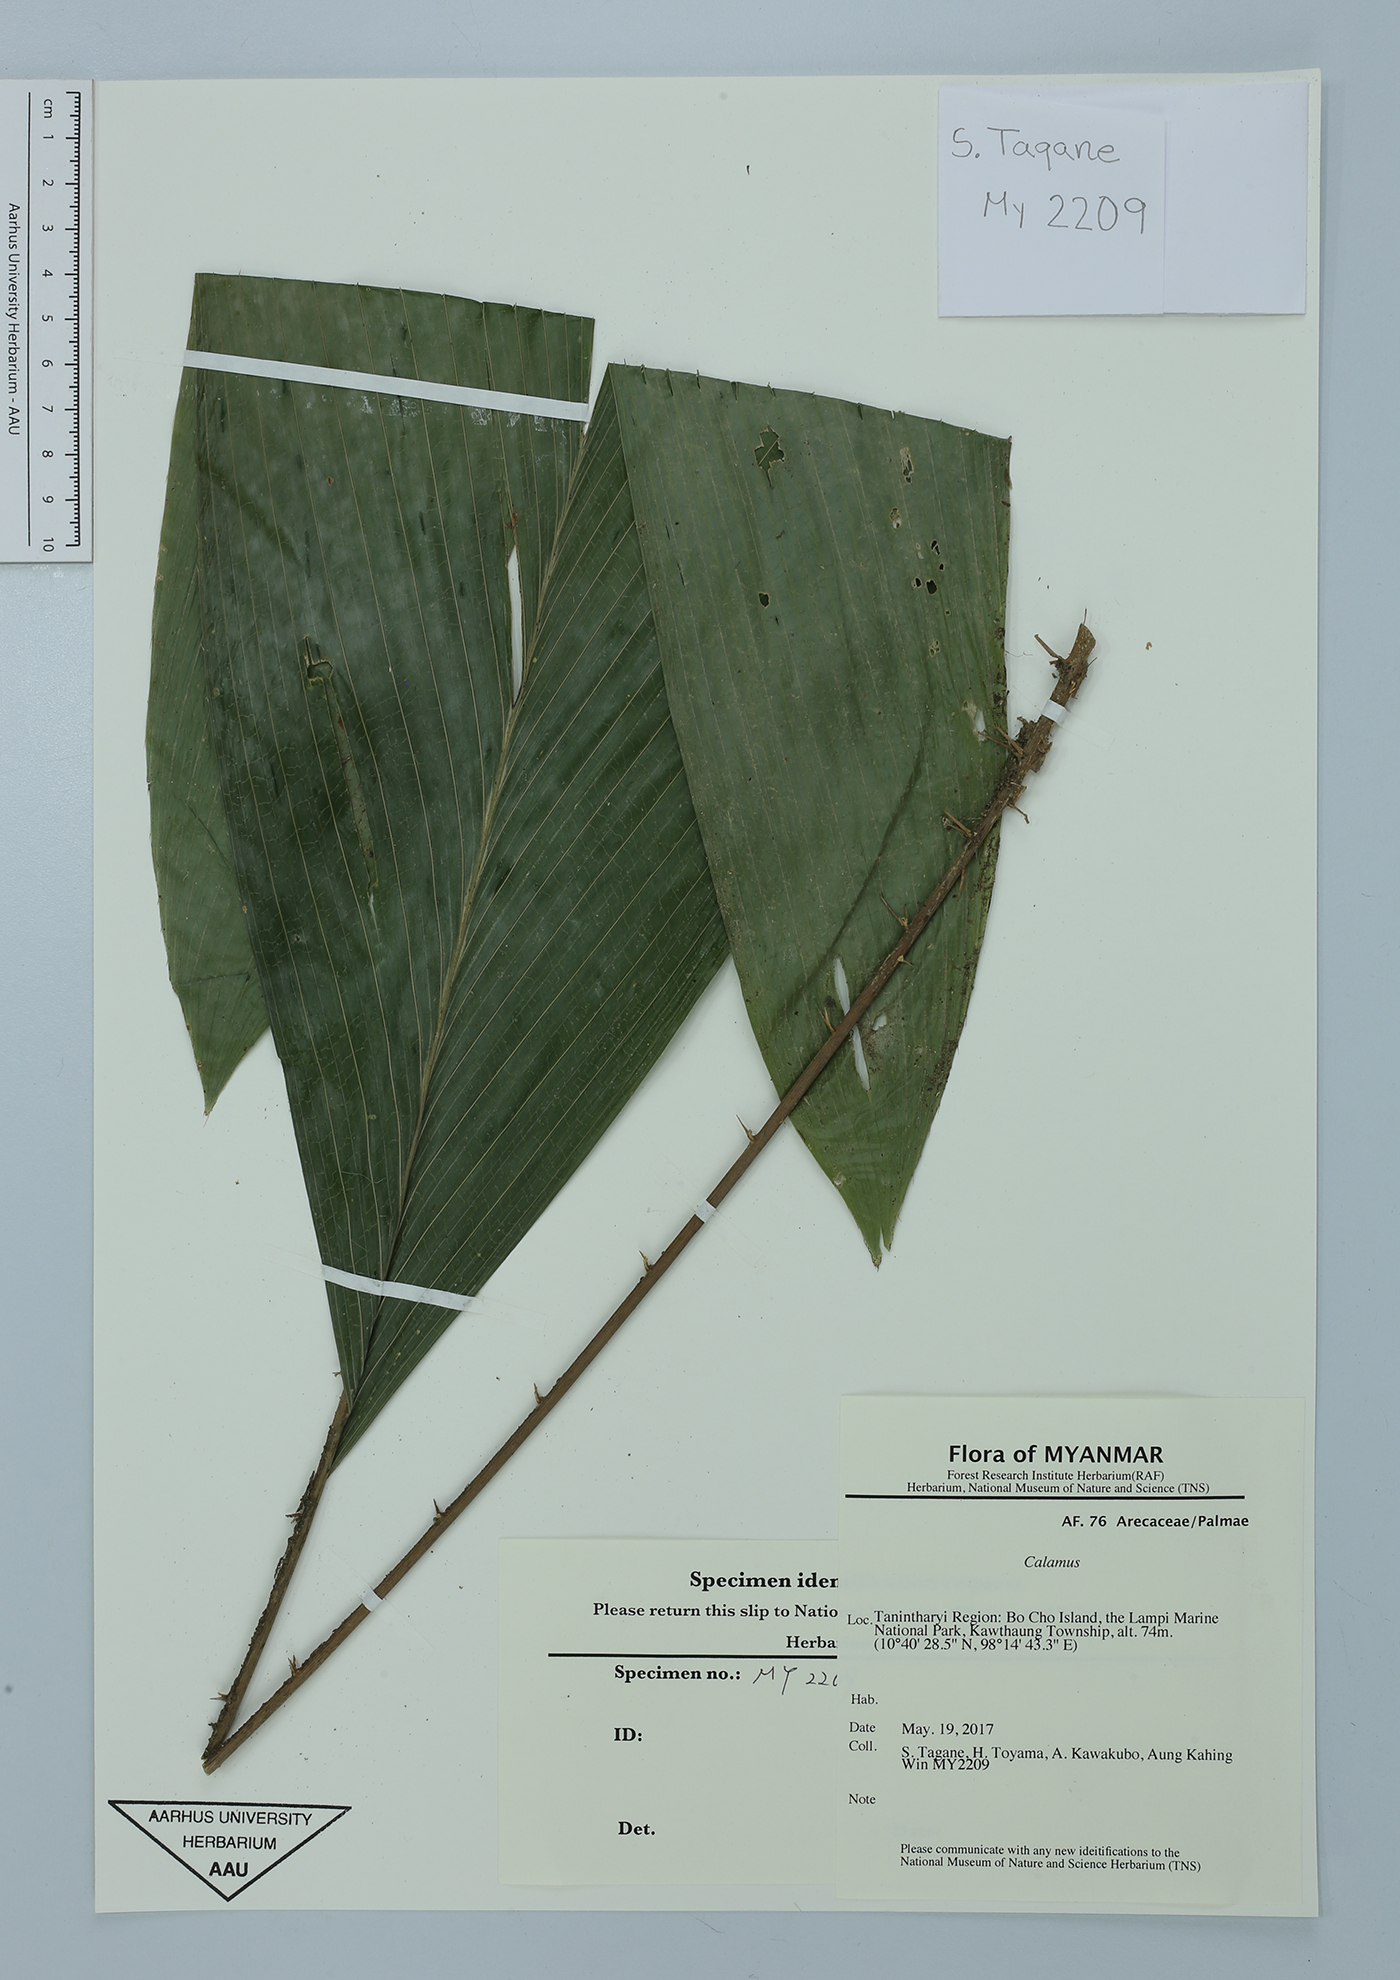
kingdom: Plantae
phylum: Tracheophyta
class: Liliopsida
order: Arecales
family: Arecaceae
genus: Calamus
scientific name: Calamus
